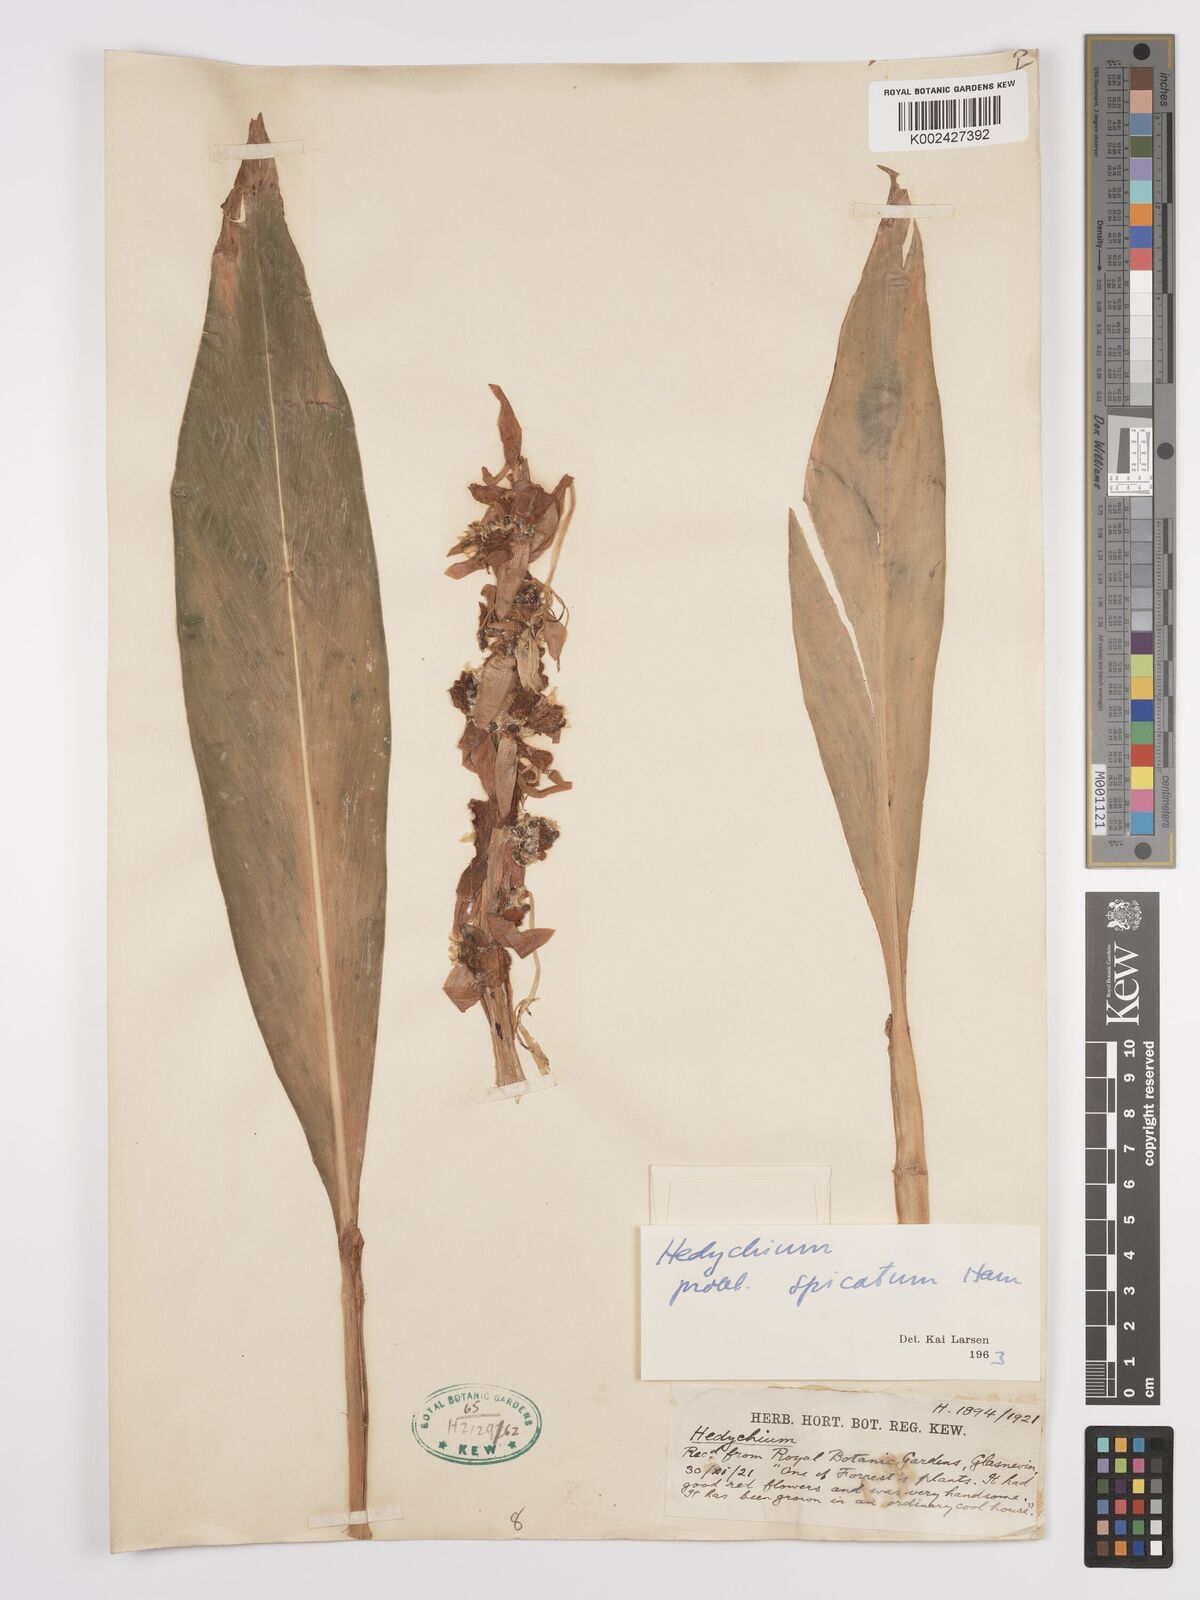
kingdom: Plantae
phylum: Tracheophyta
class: Liliopsida
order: Zingiberales
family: Zingiberaceae
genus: Hedychium
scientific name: Hedychium
